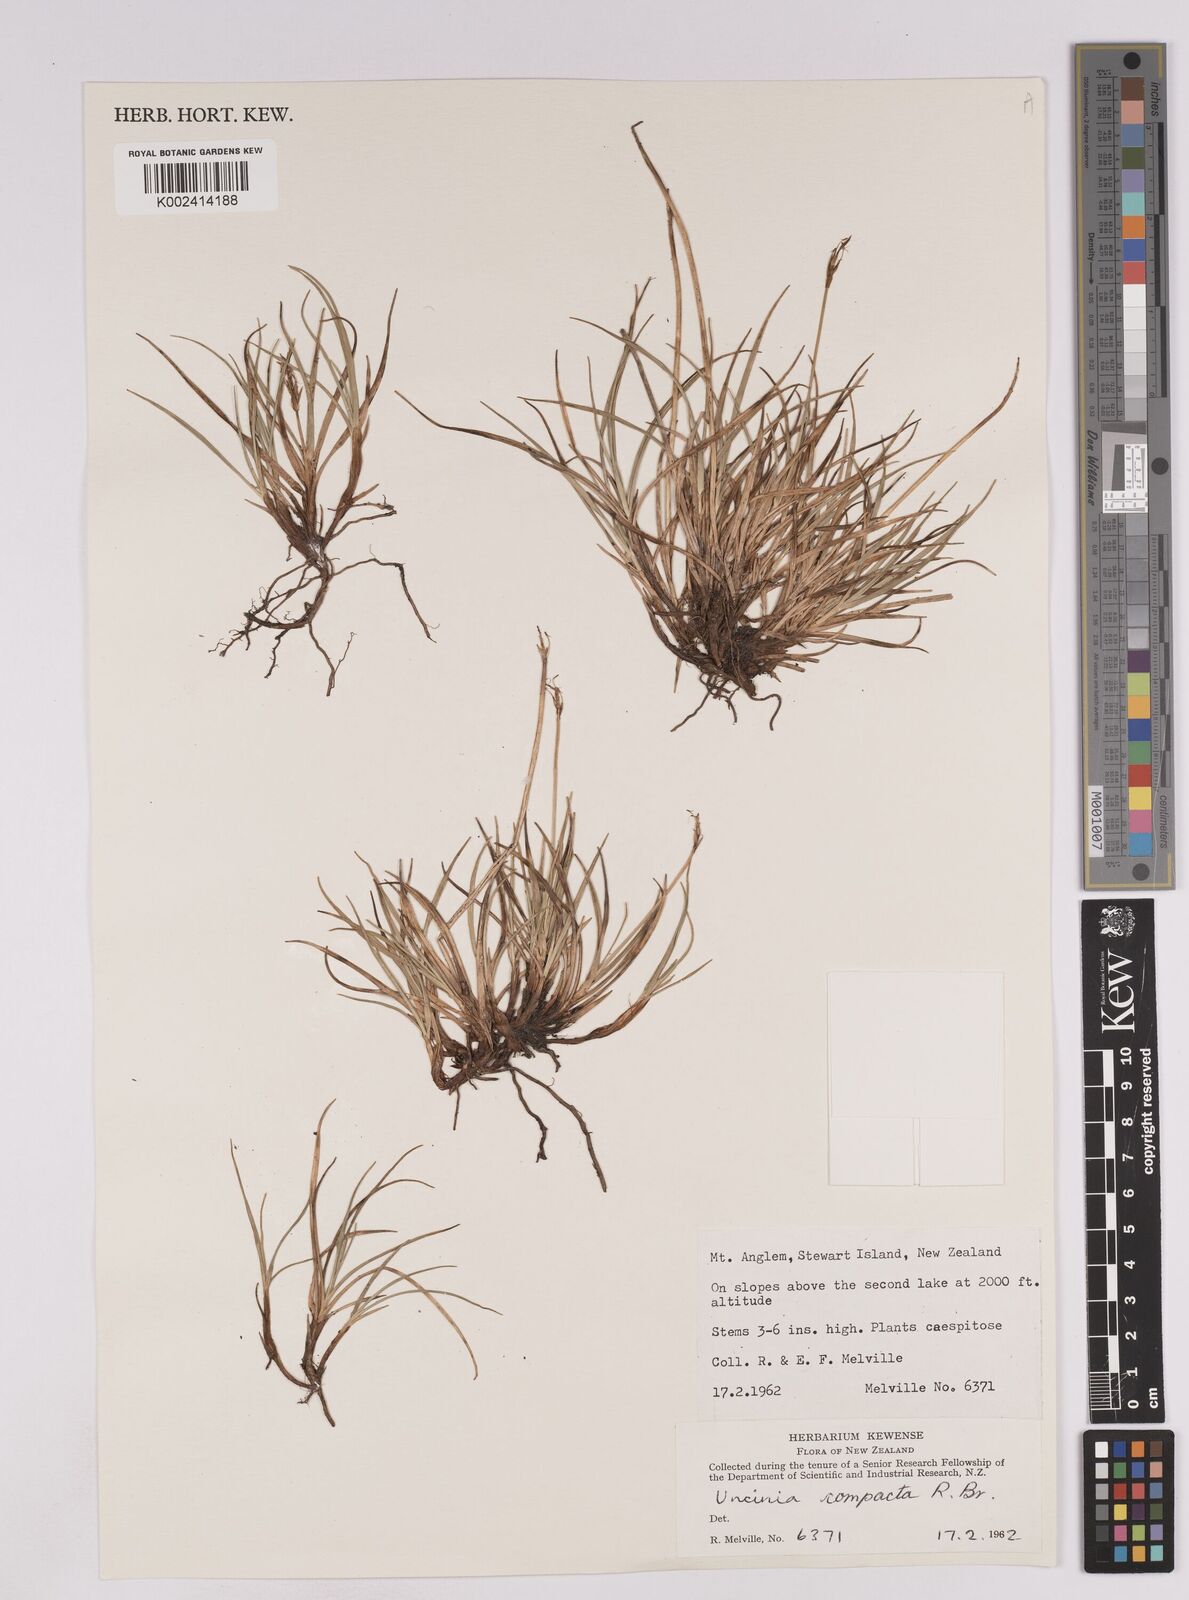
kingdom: Plantae
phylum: Tracheophyta
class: Liliopsida
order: Poales
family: Cyperaceae
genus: Carex
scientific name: Carex austrocompacta
